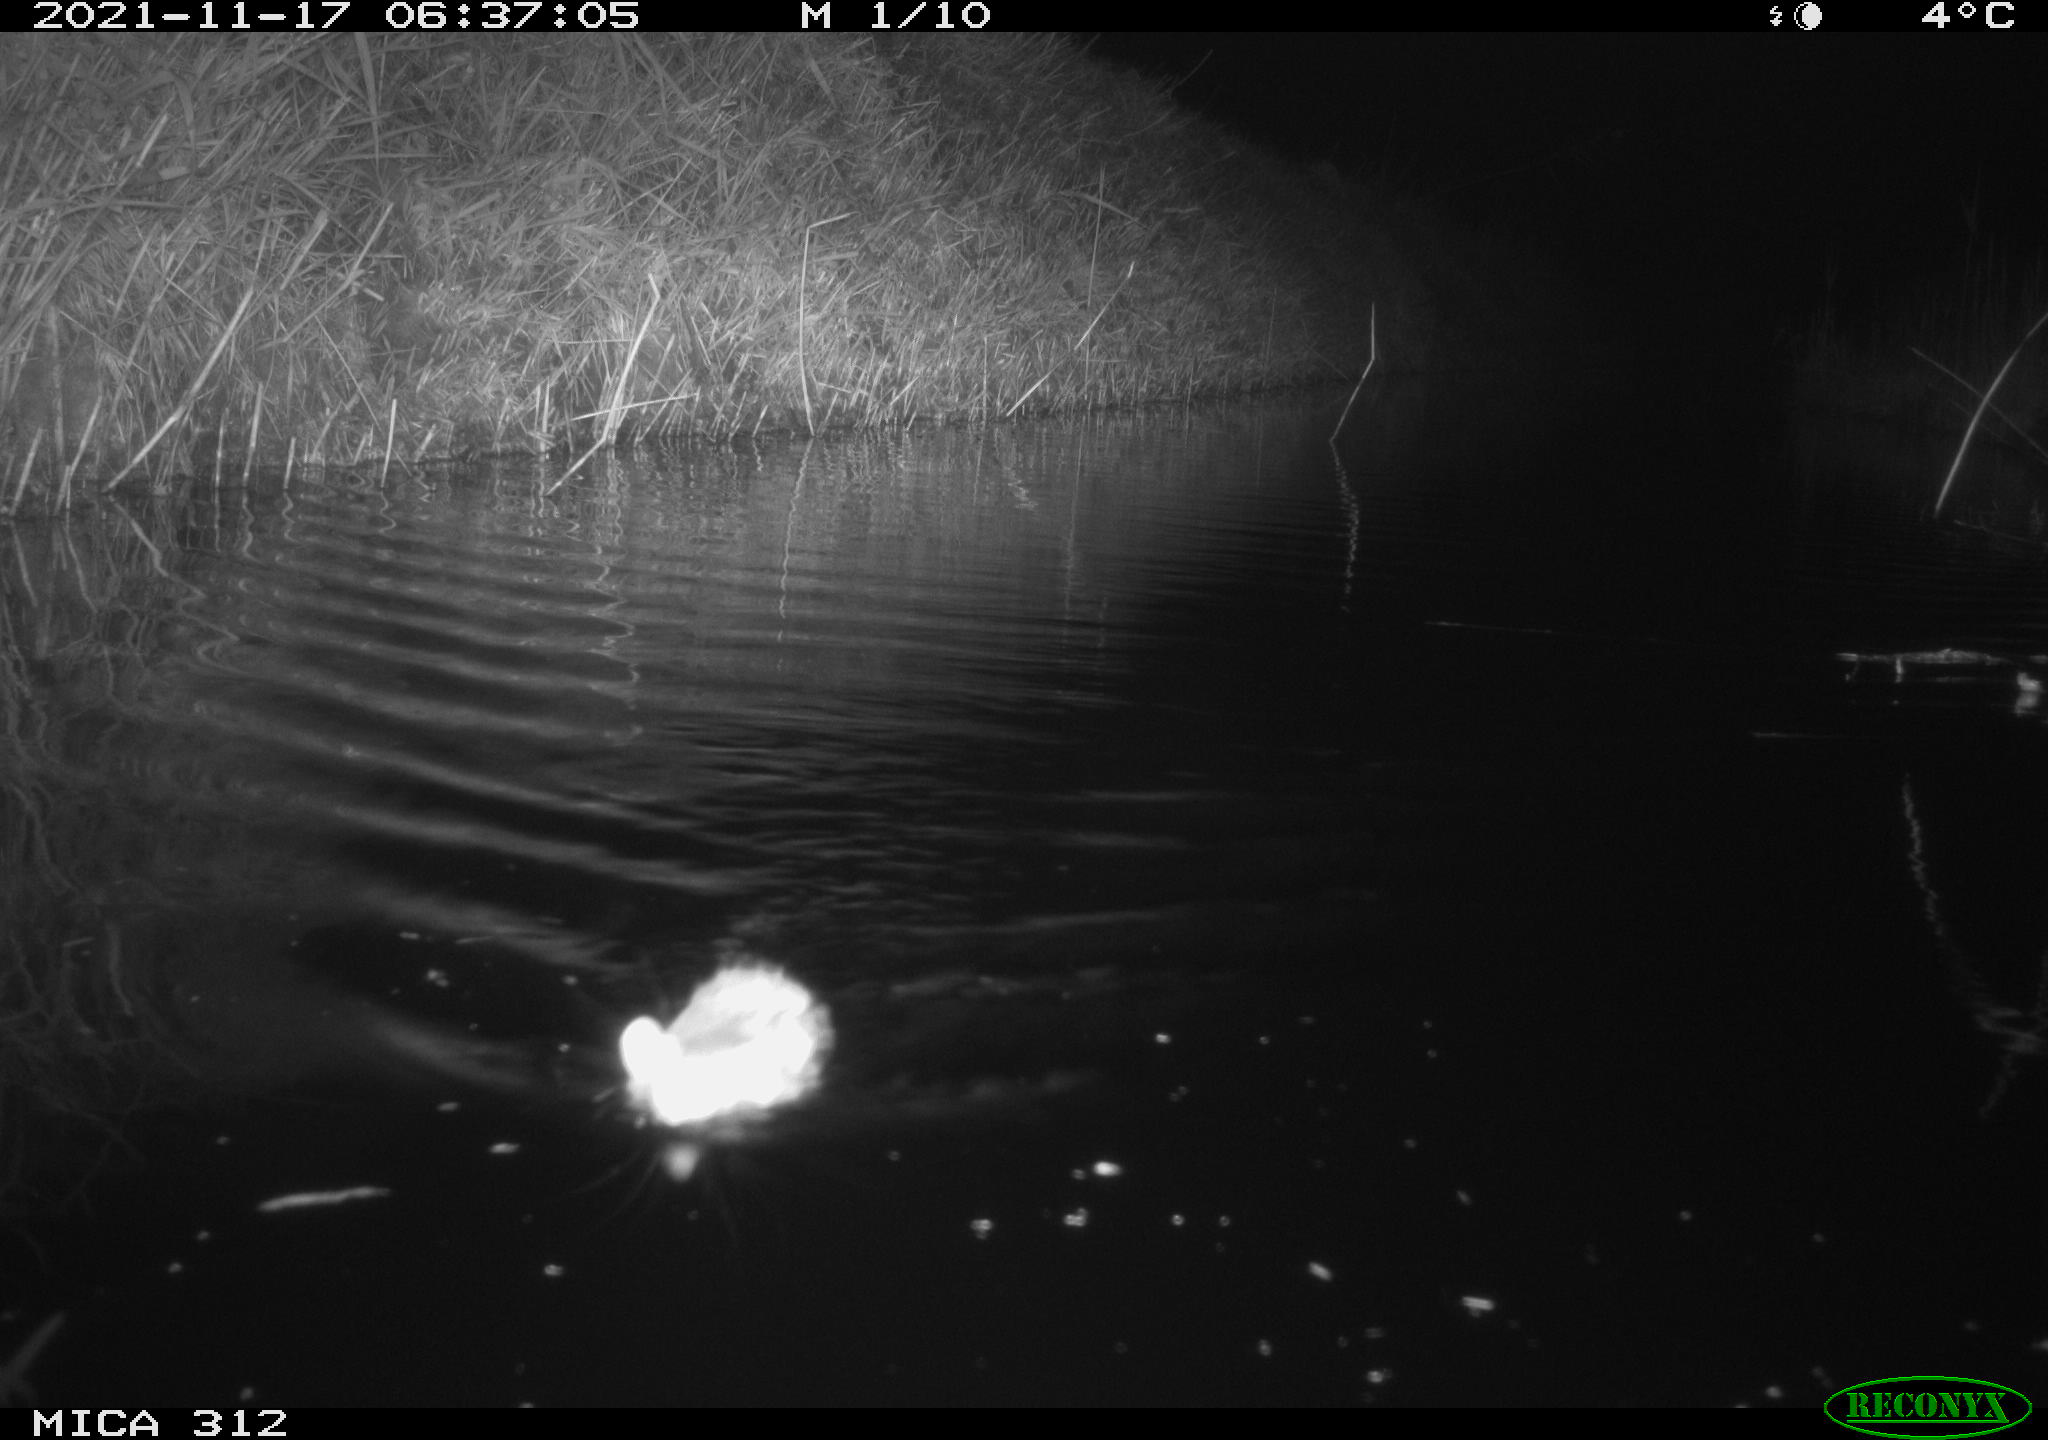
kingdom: Animalia
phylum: Chordata
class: Mammalia
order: Rodentia
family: Muridae
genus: Rattus
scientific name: Rattus norvegicus
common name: Brown rat
